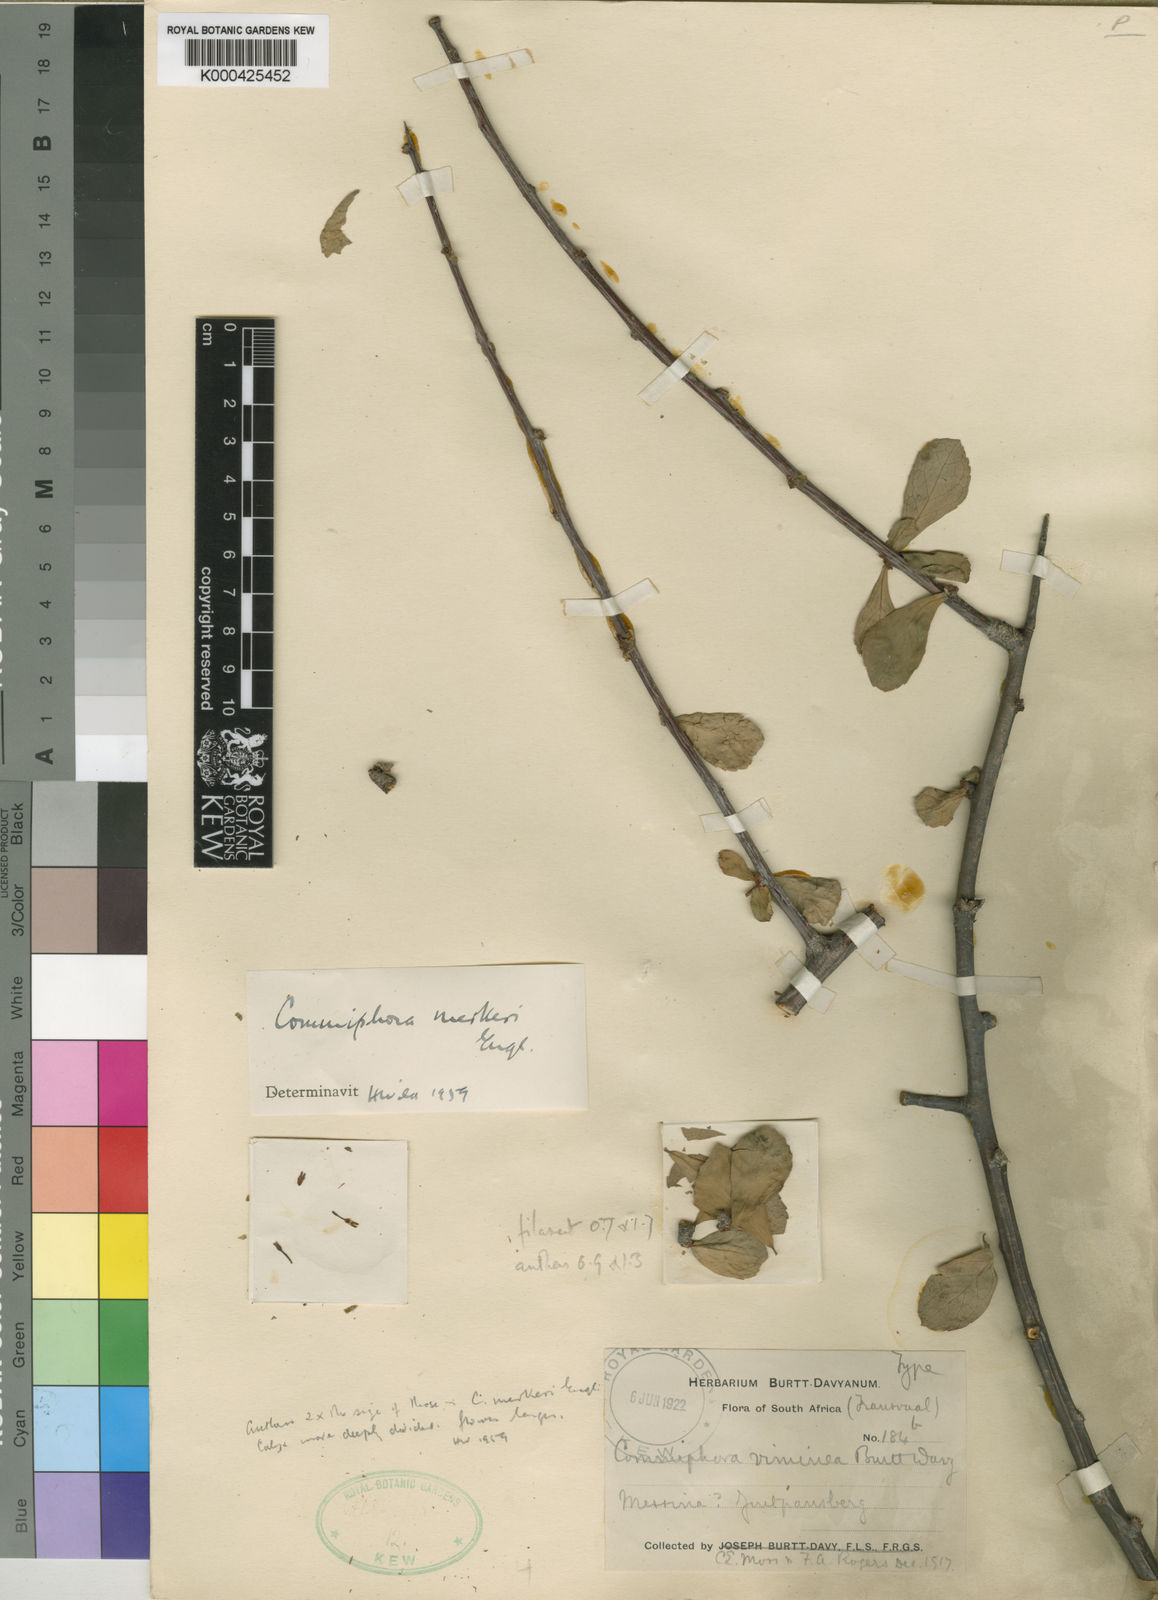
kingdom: Plantae
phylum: Tracheophyta
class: Magnoliopsida
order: Sapindales
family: Burseraceae
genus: Commiphora
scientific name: Commiphora viminea
